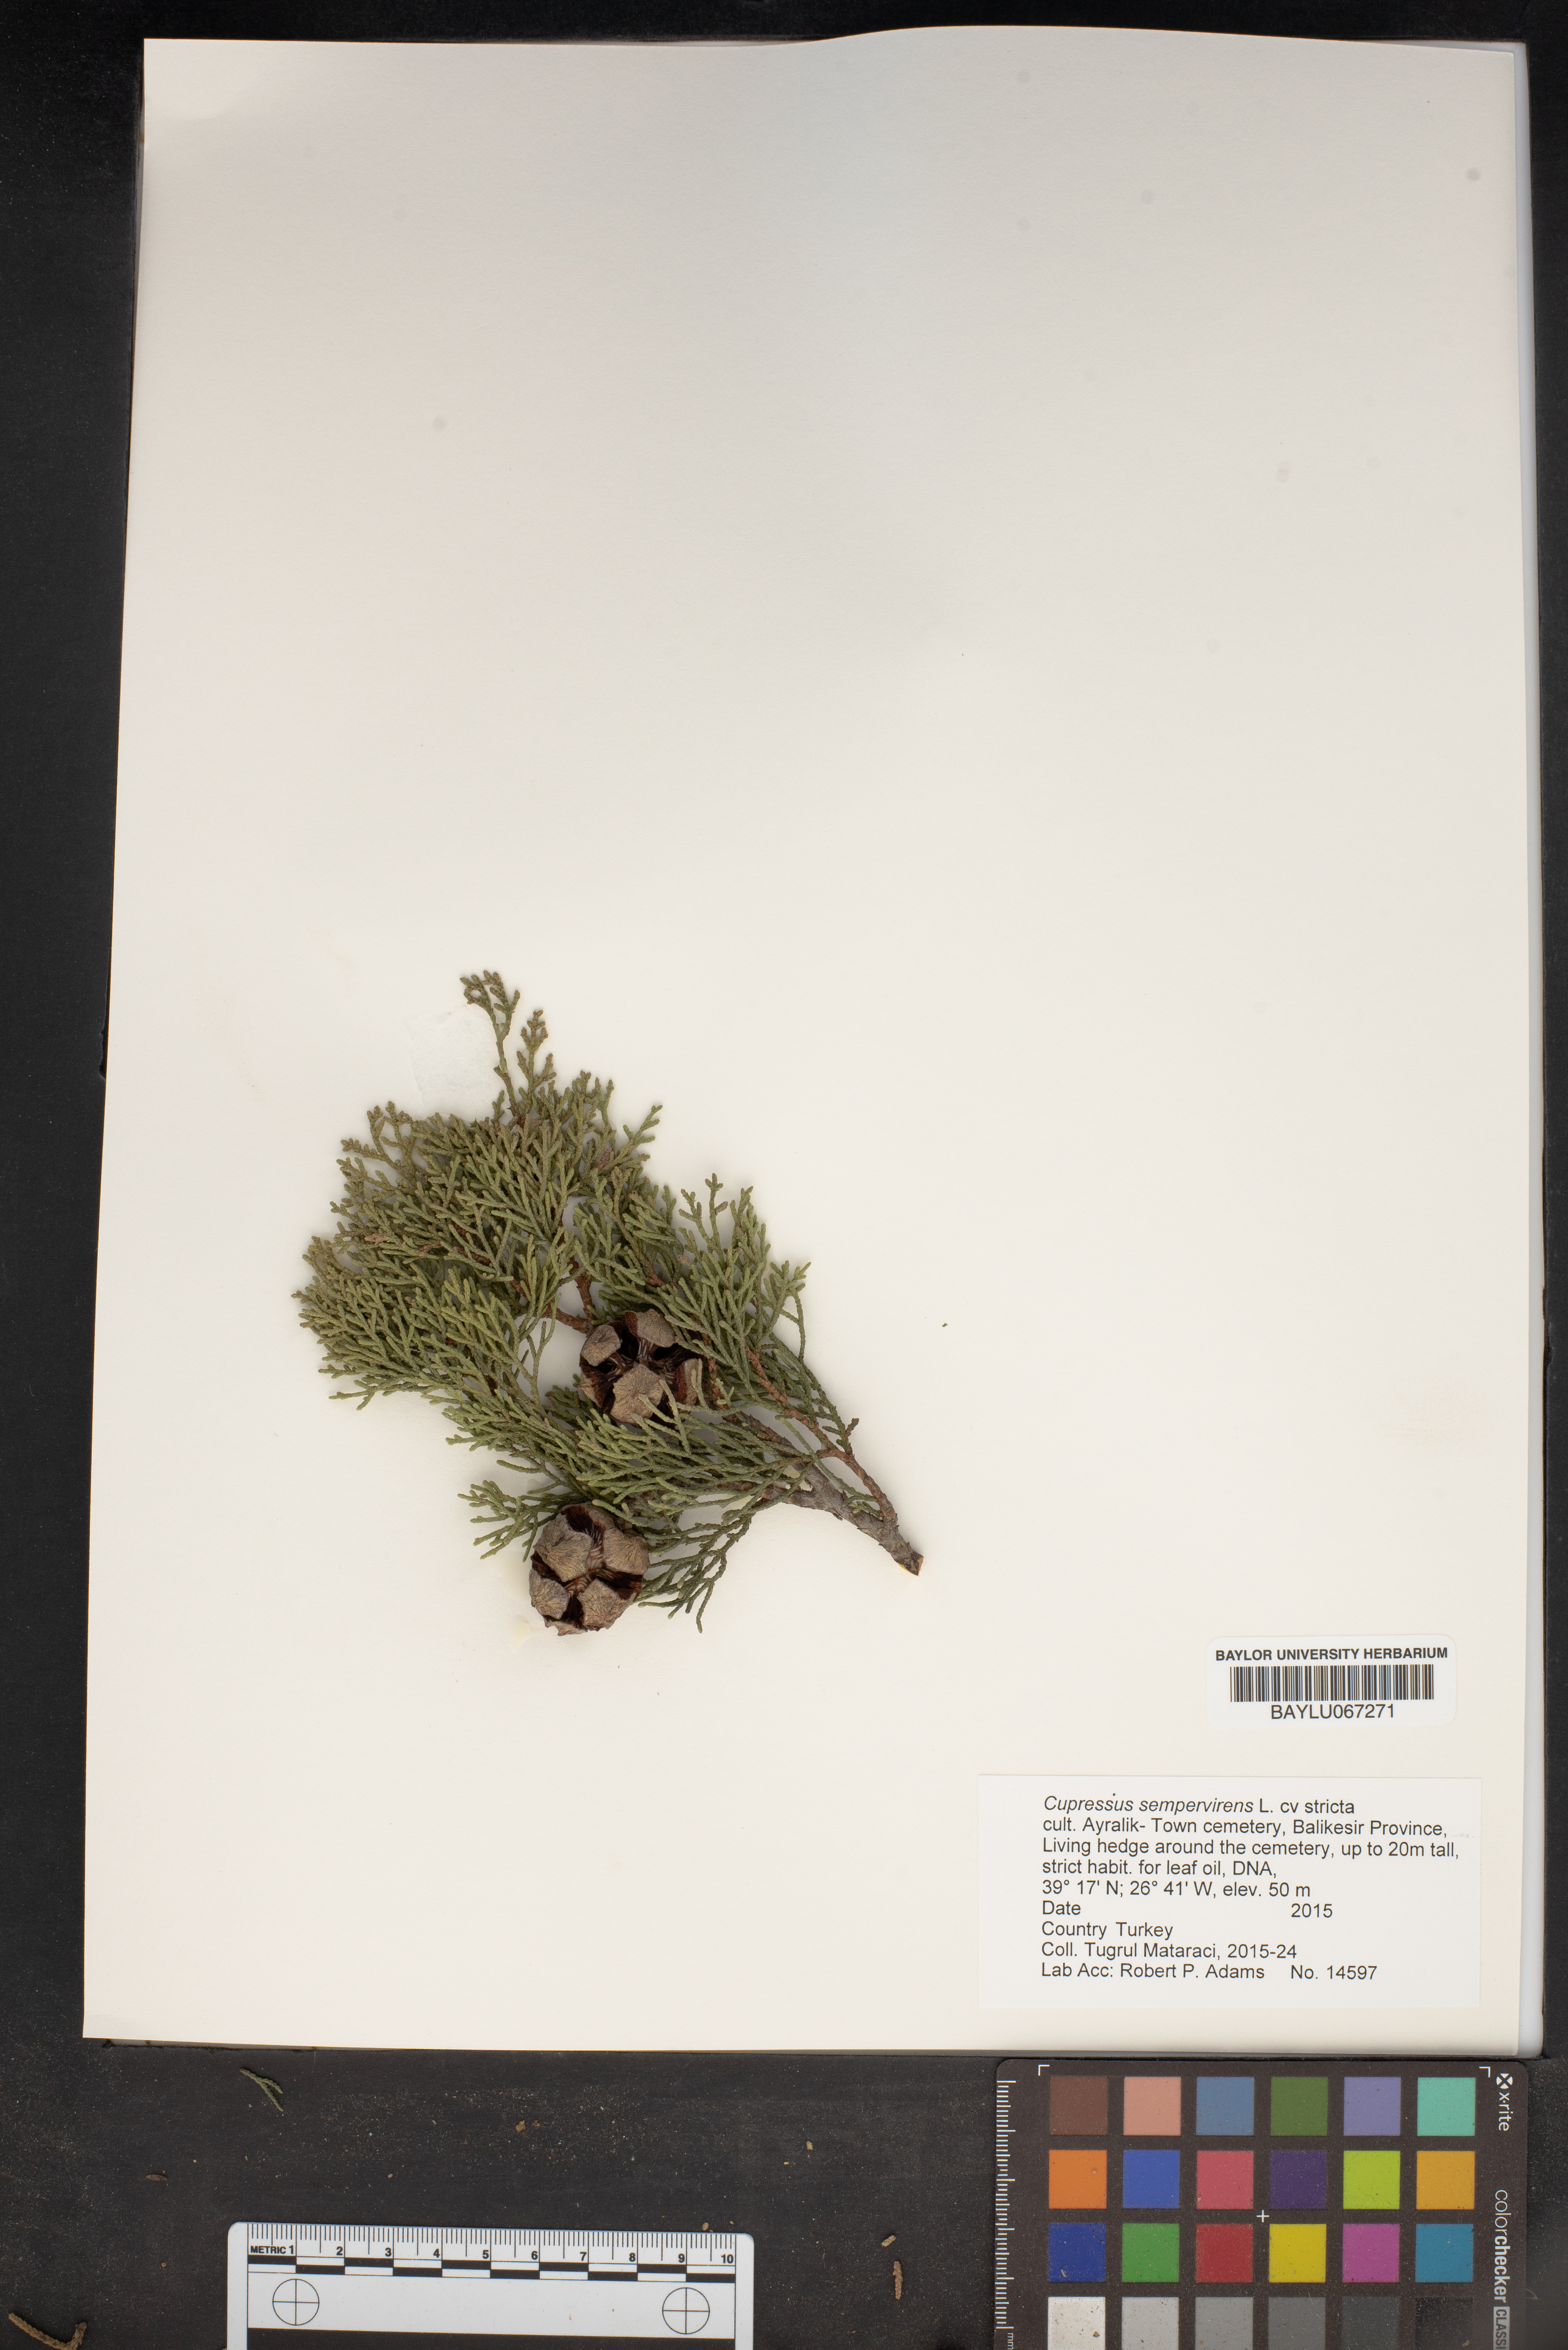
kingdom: Plantae
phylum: Tracheophyta
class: Pinopsida
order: Pinales
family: Cupressaceae
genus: Cupressus
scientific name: Cupressus sempervirens
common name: Italian cypress
